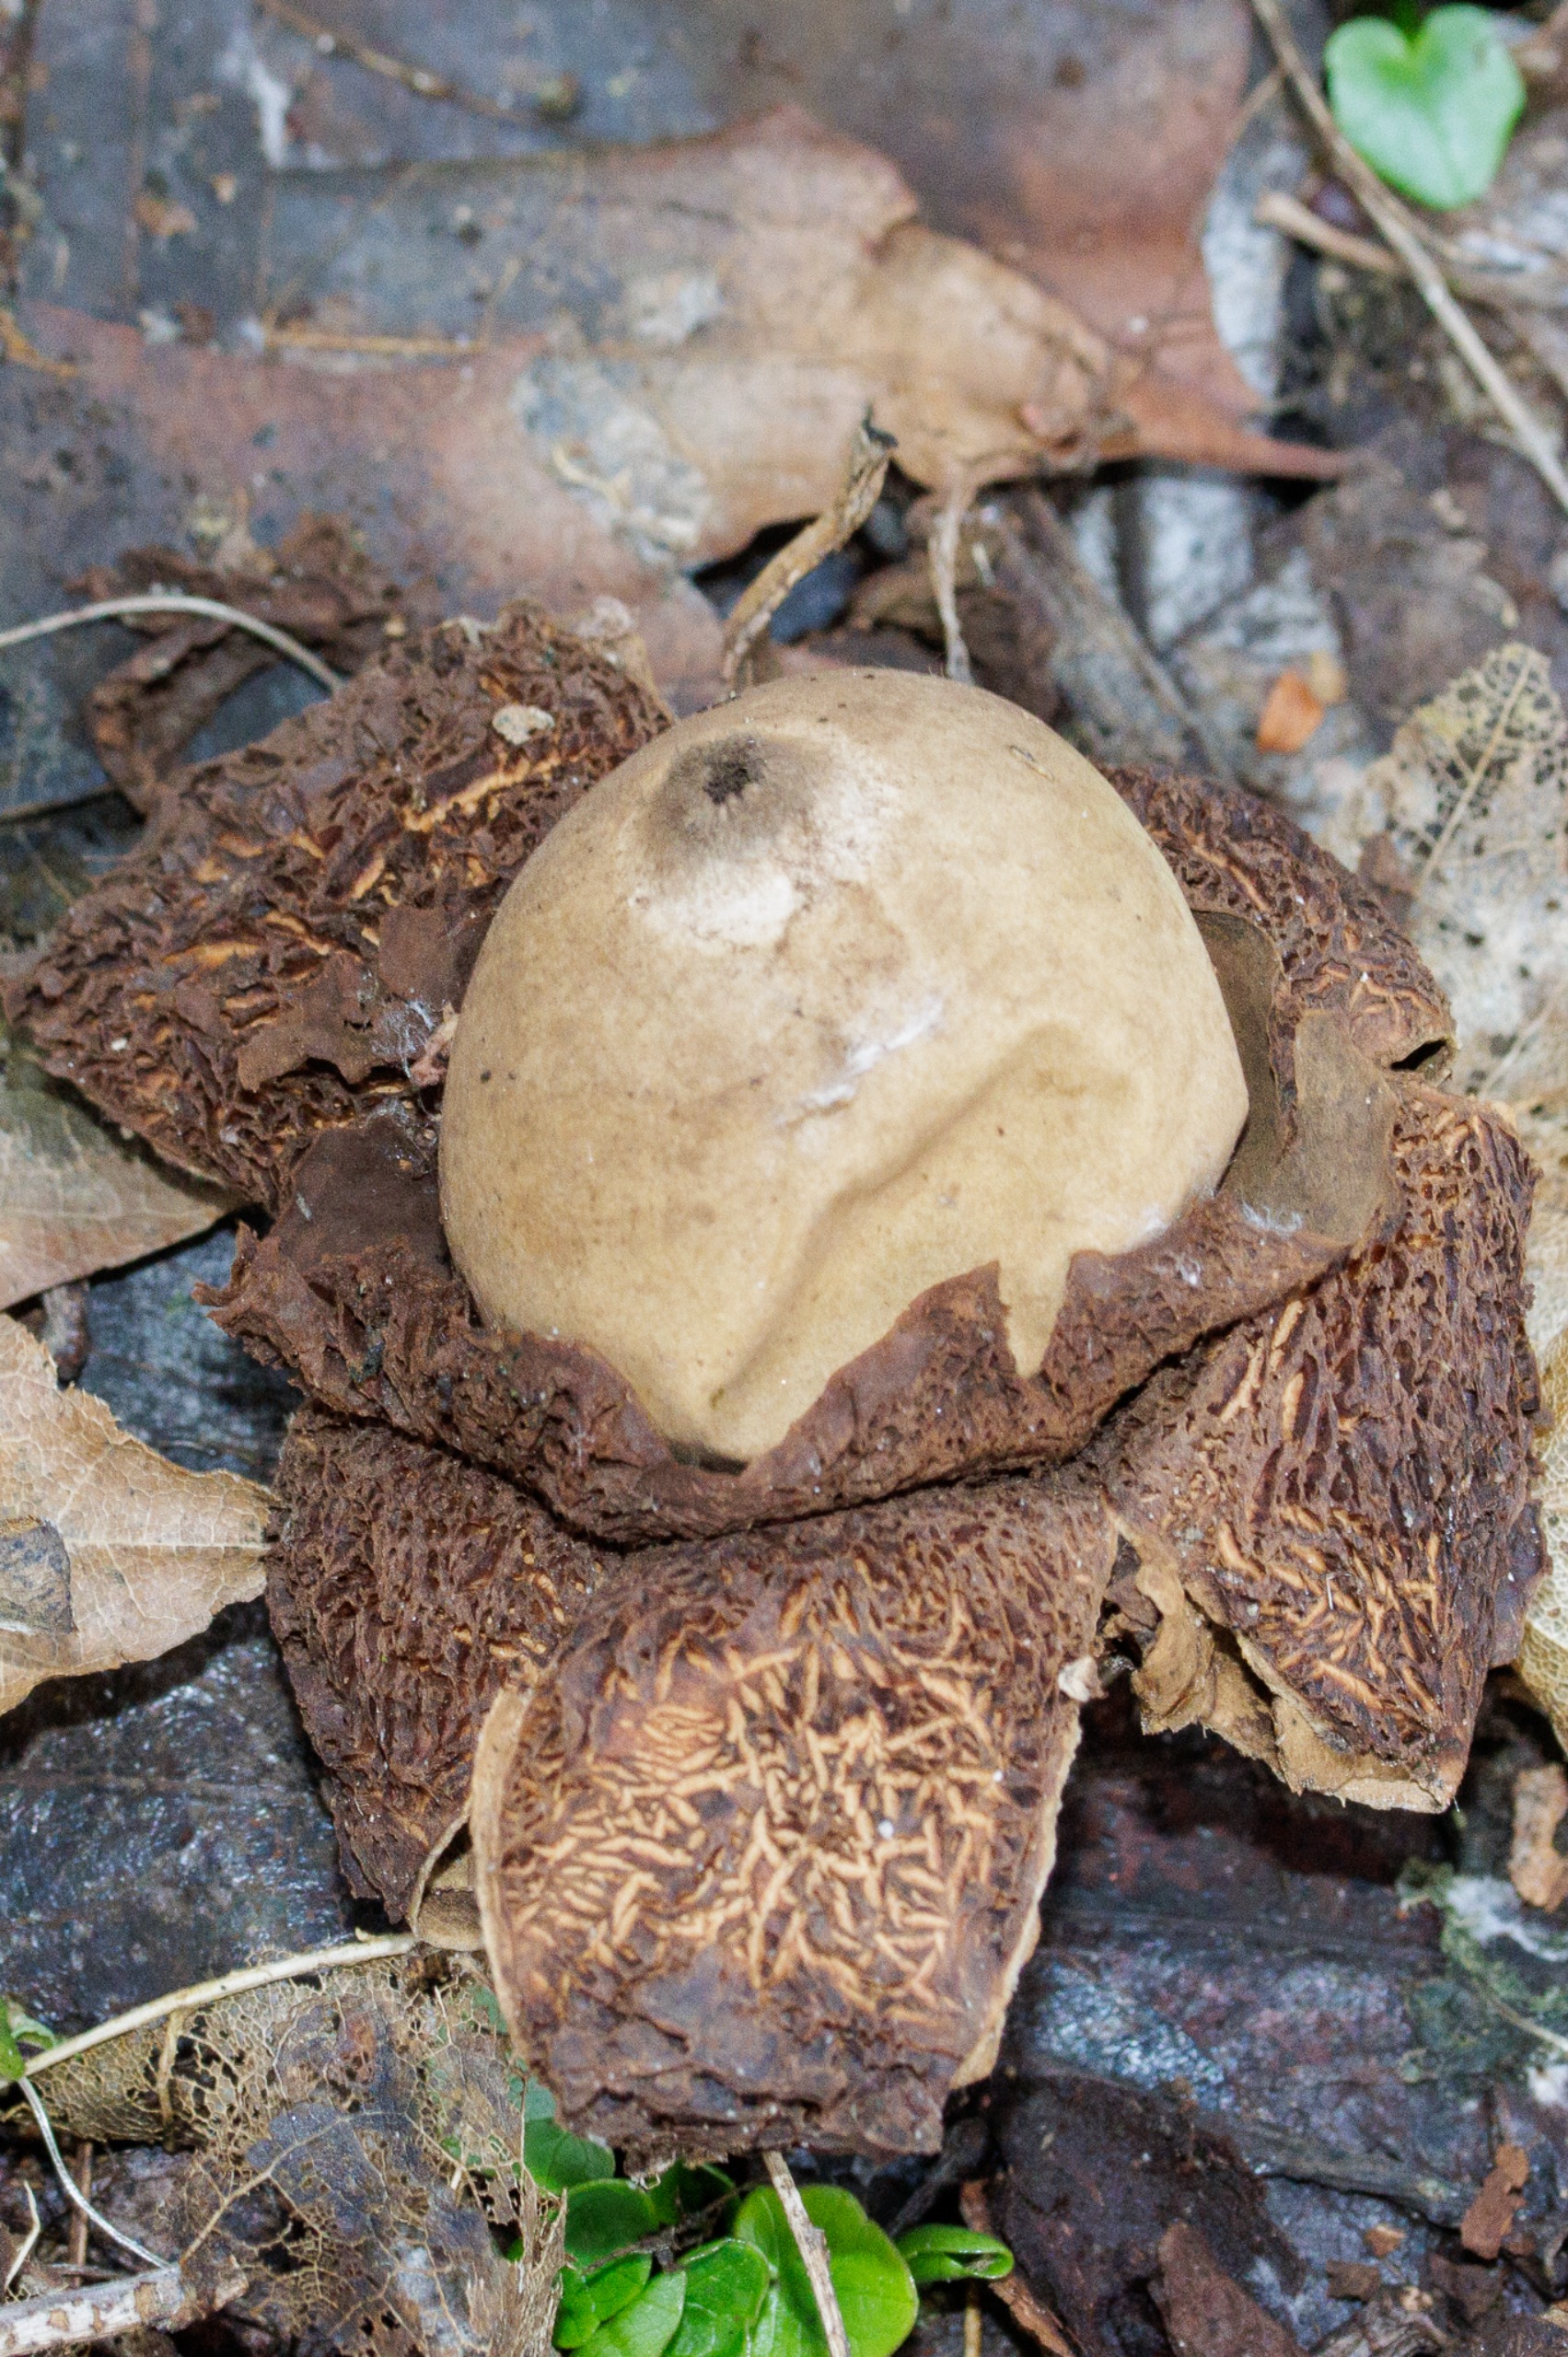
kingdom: Fungi
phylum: Basidiomycota
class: Agaricomycetes
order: Geastrales
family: Geastraceae
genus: Geastrum
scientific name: Geastrum michelianum
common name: Kødet stjernebold
